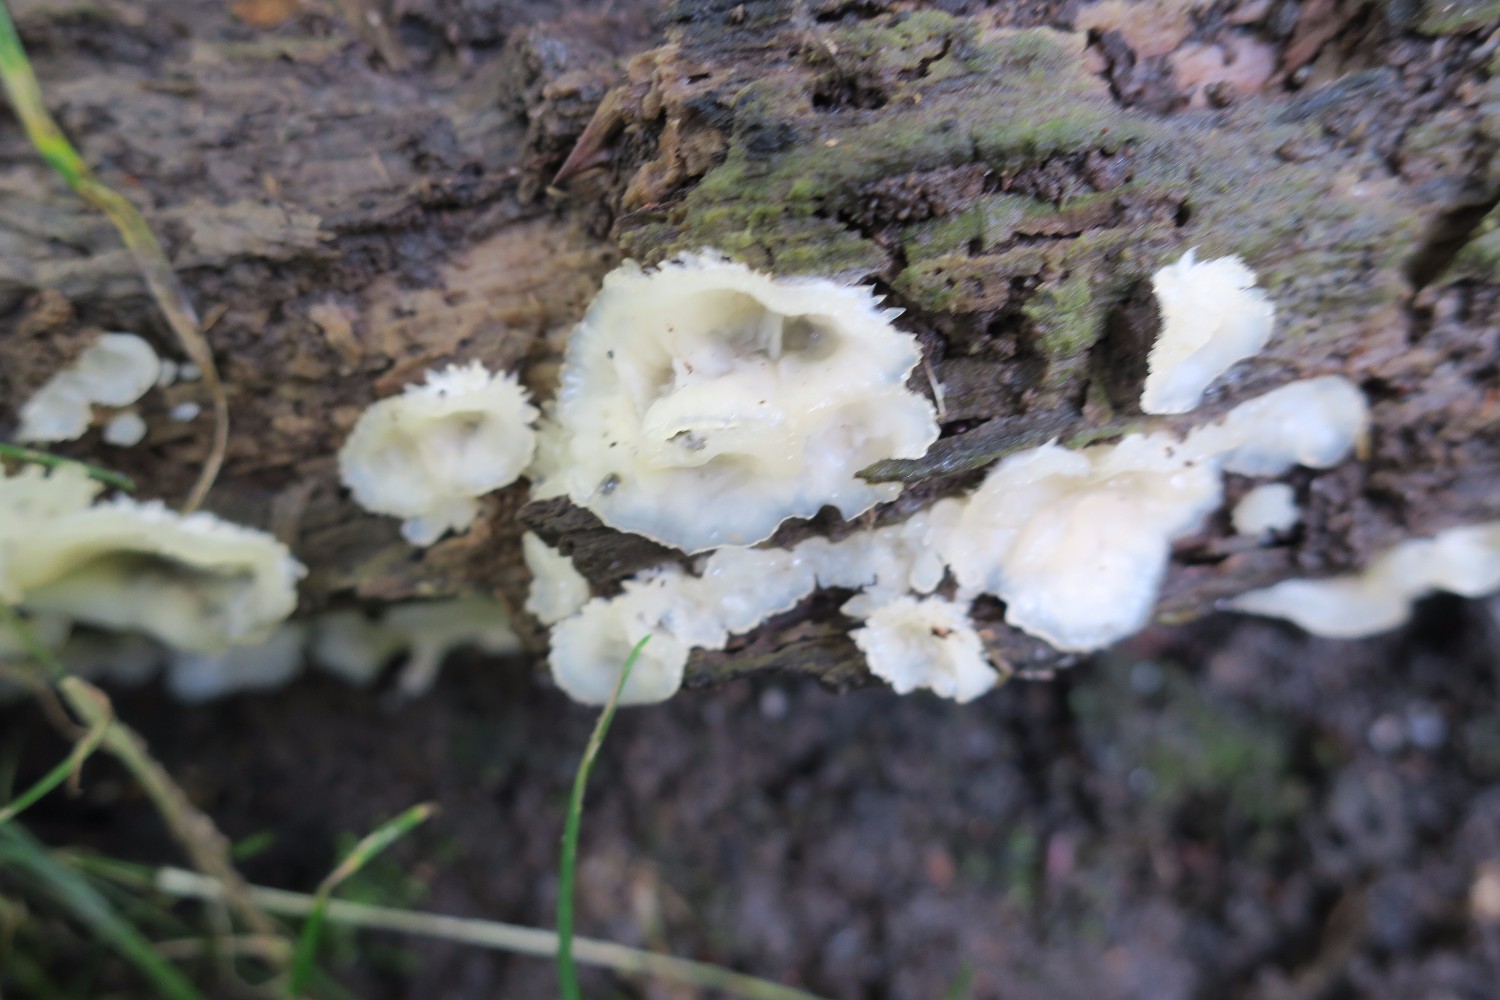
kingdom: Fungi
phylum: Basidiomycota
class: Agaricomycetes
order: Polyporales
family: Meruliaceae
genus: Phlebia
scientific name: Phlebia tremellosa
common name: bævrende åresvamp
